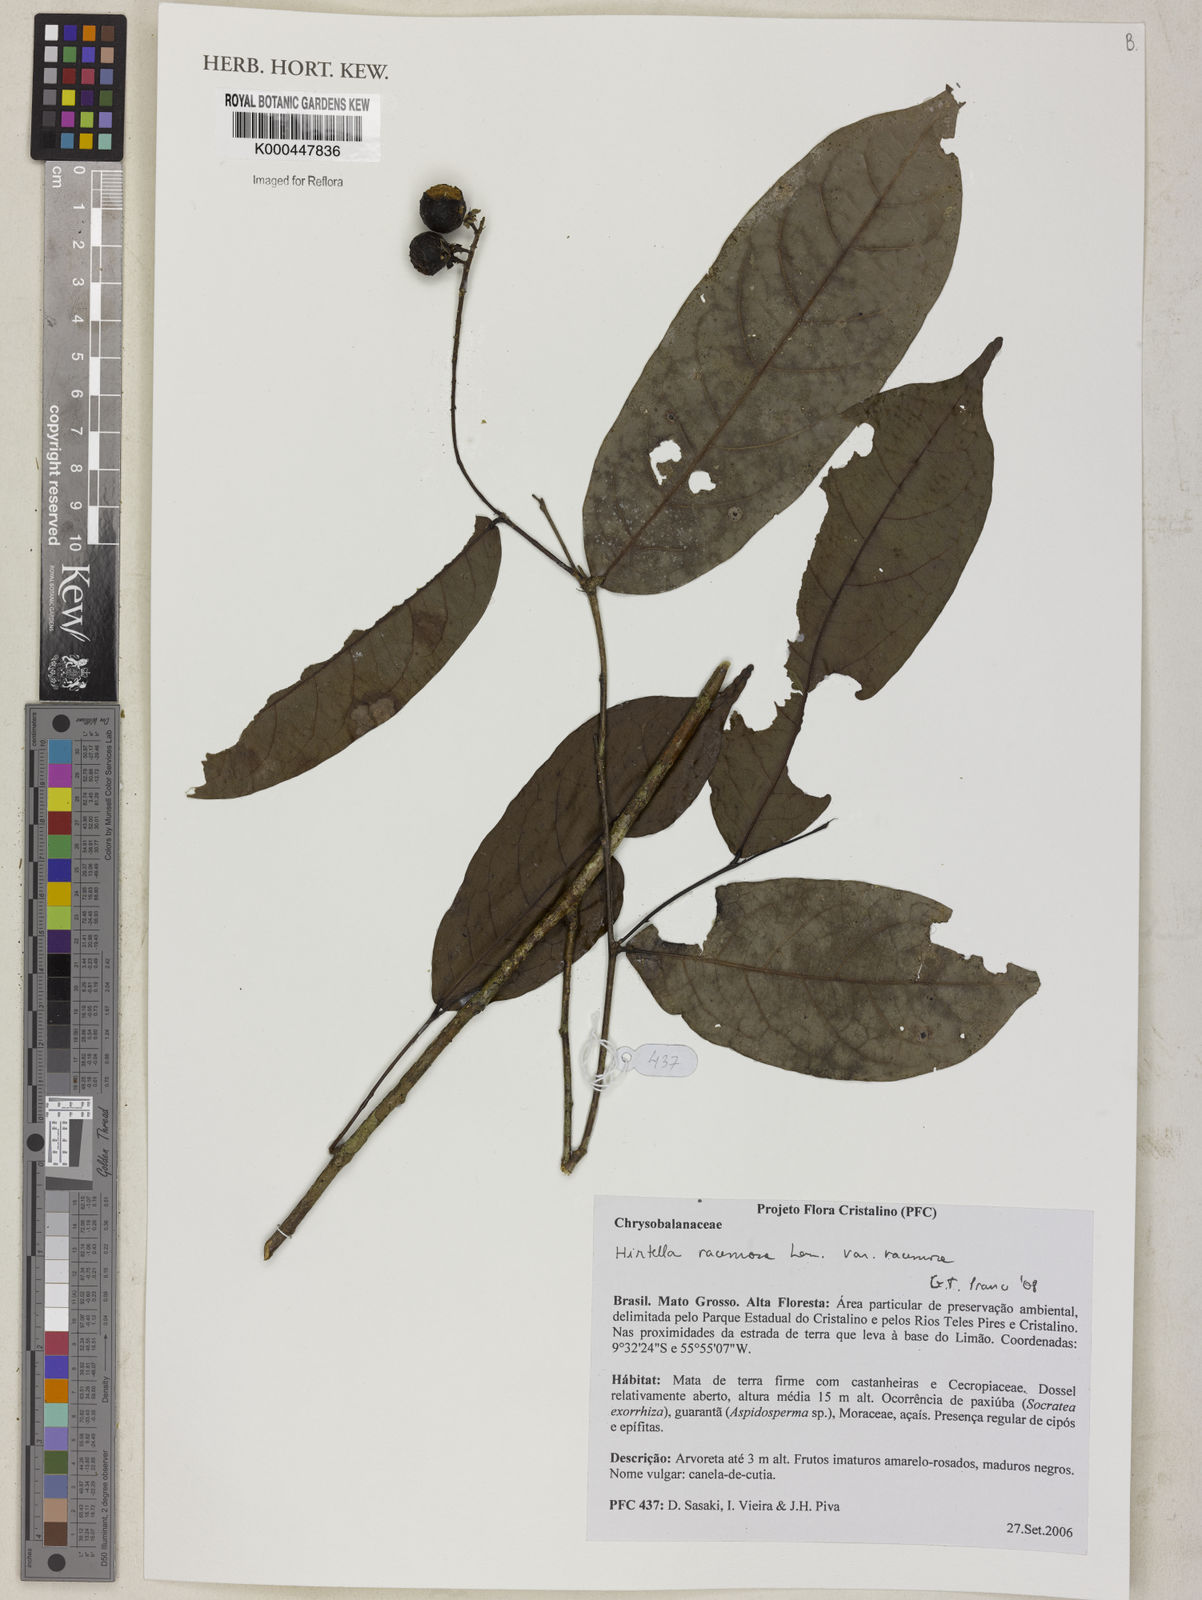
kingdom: Plantae
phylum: Tracheophyta
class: Magnoliopsida
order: Malpighiales
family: Chrysobalanaceae
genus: Hirtella
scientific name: Hirtella racemosa
